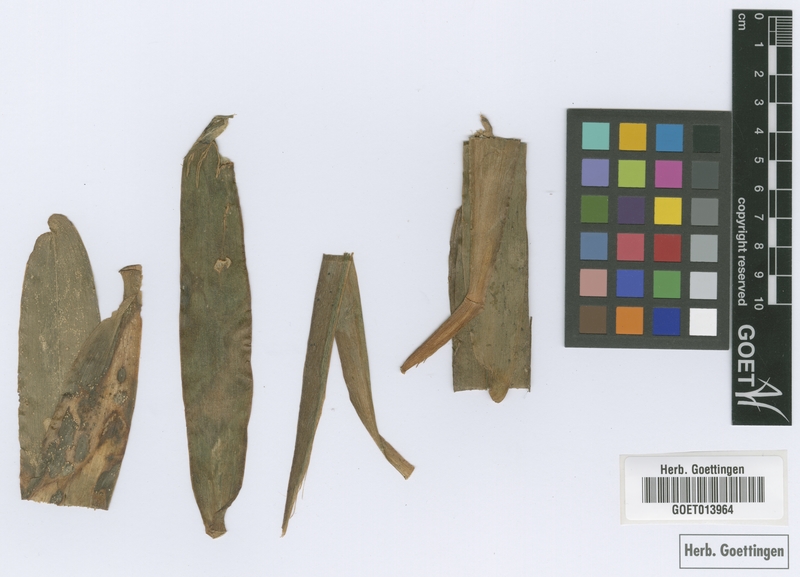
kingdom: Plantae
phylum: Tracheophyta
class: Liliopsida
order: Asparagales
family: Orchidaceae
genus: Arachnis
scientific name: Arachnis cathcartii
